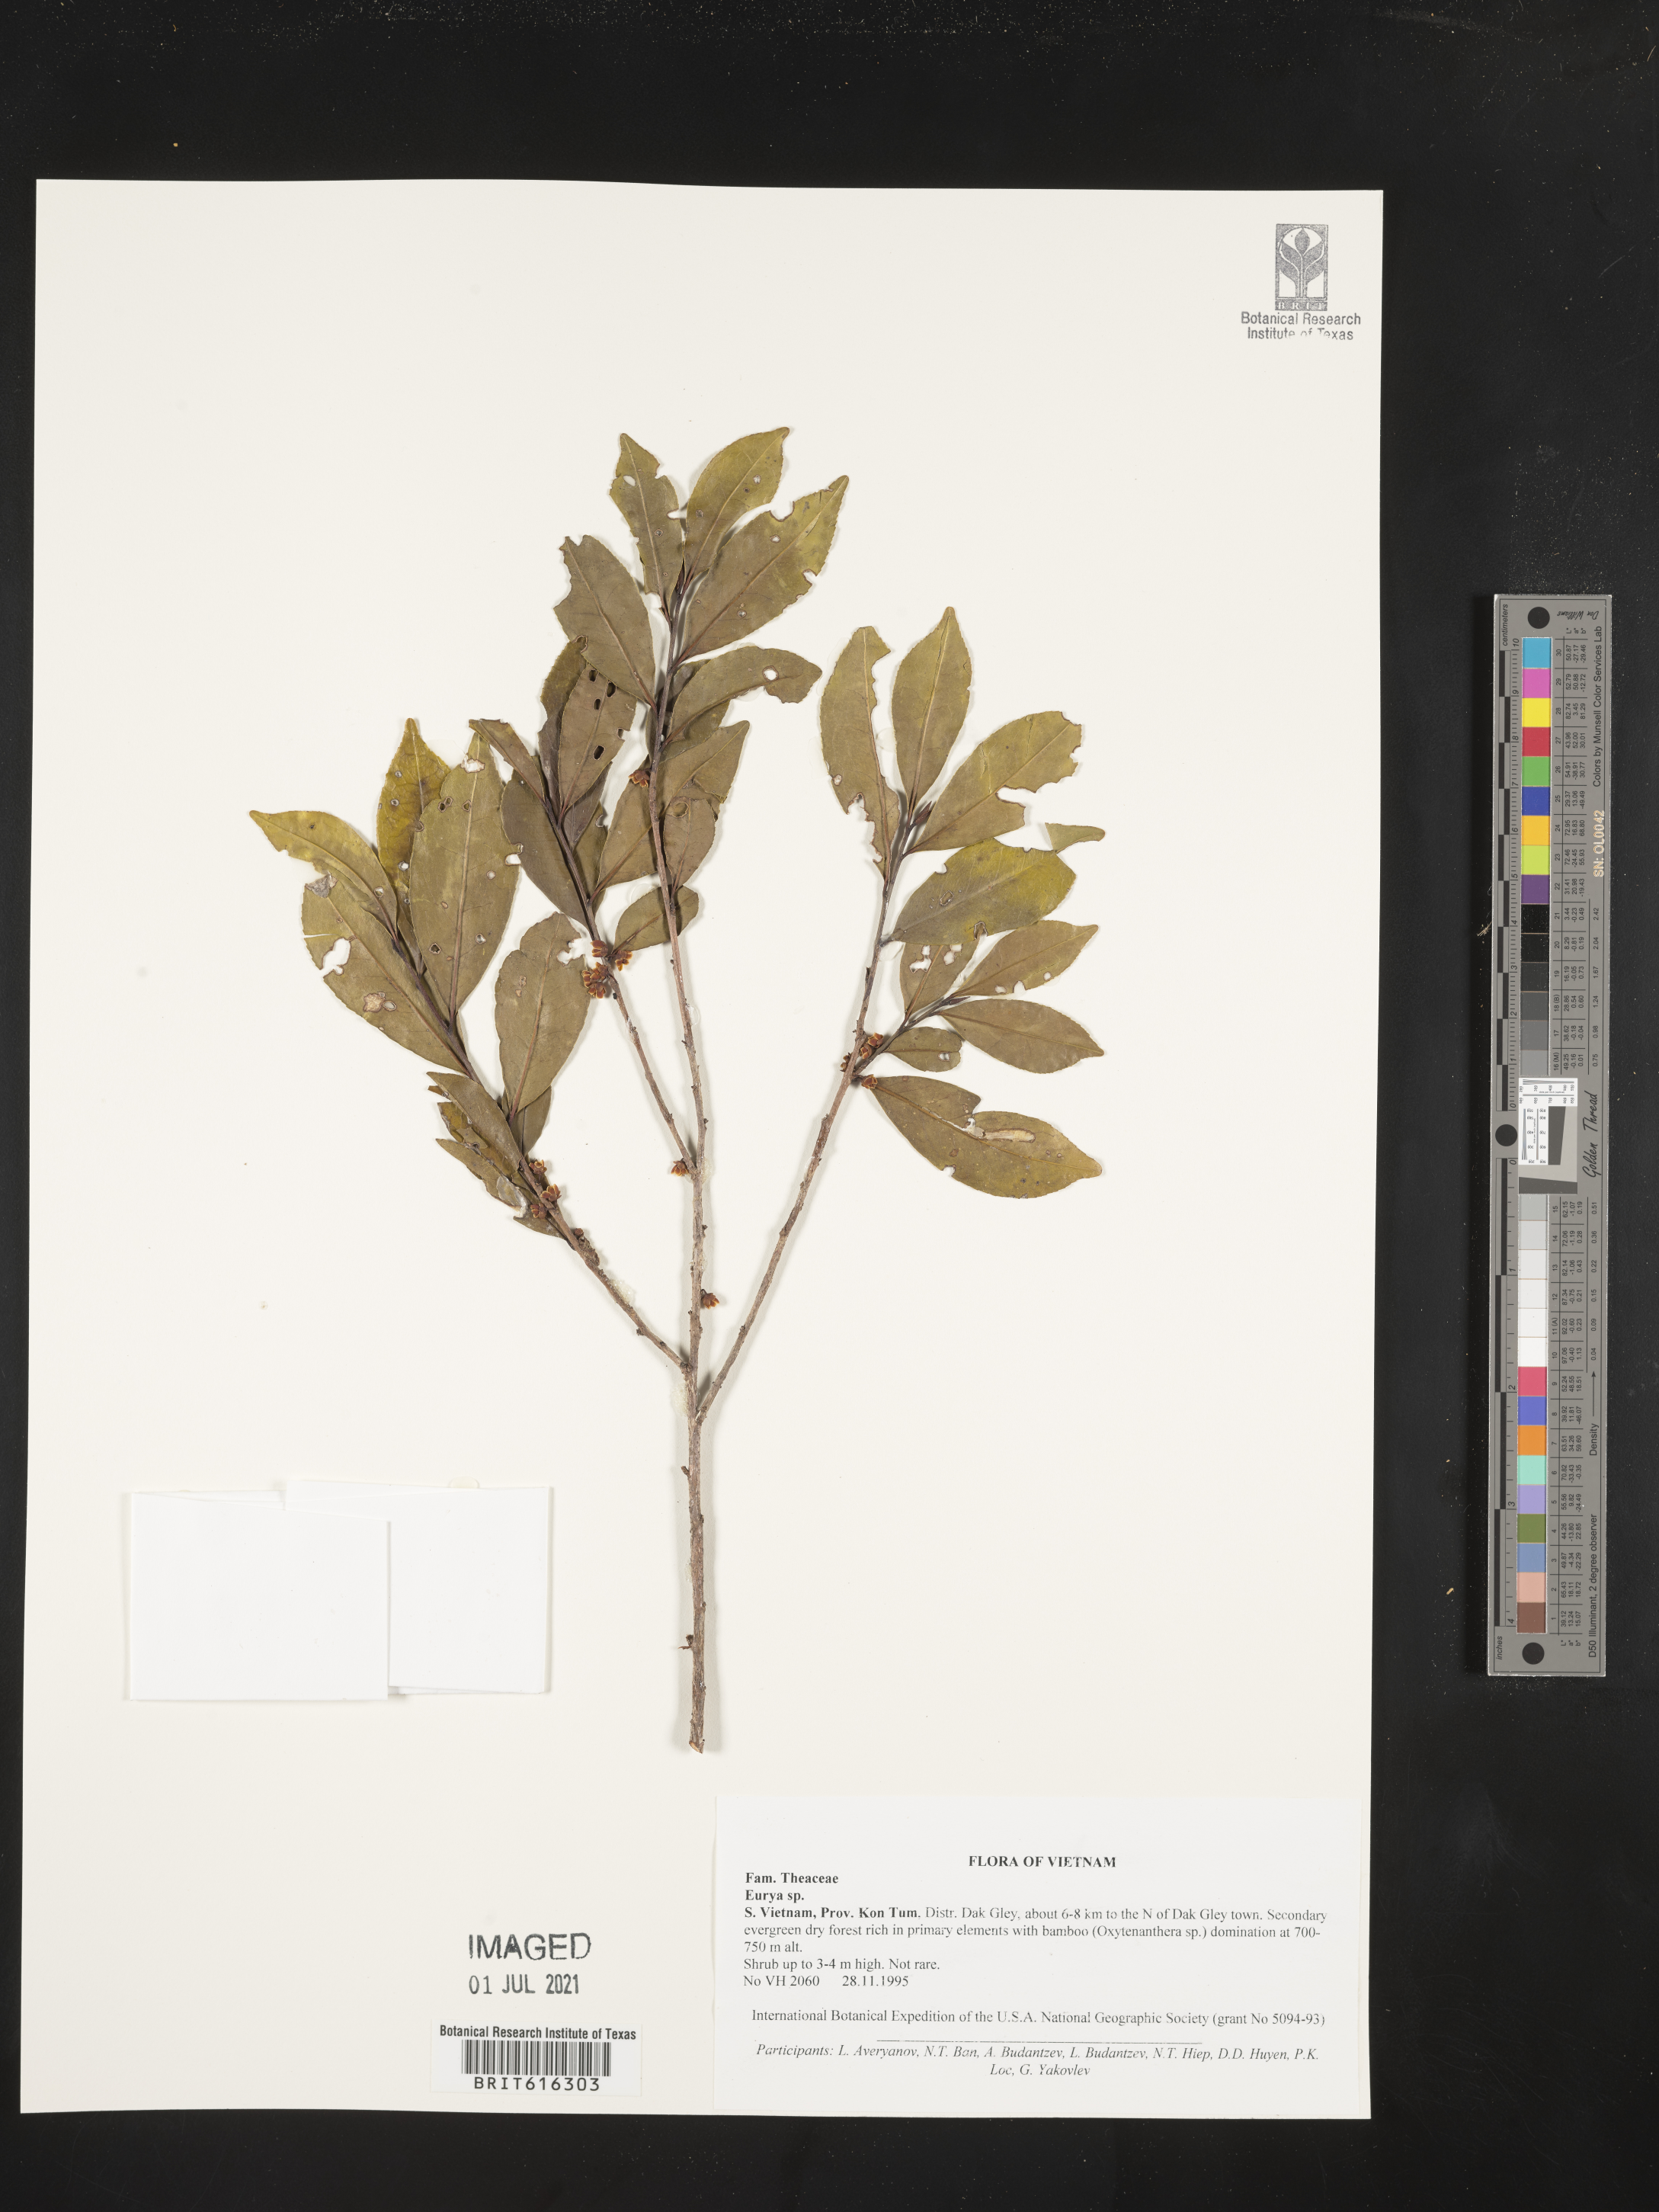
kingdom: Plantae
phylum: Tracheophyta
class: Magnoliopsida
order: Ericales
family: Pentaphylacaceae
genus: Eurya
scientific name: Eurya
